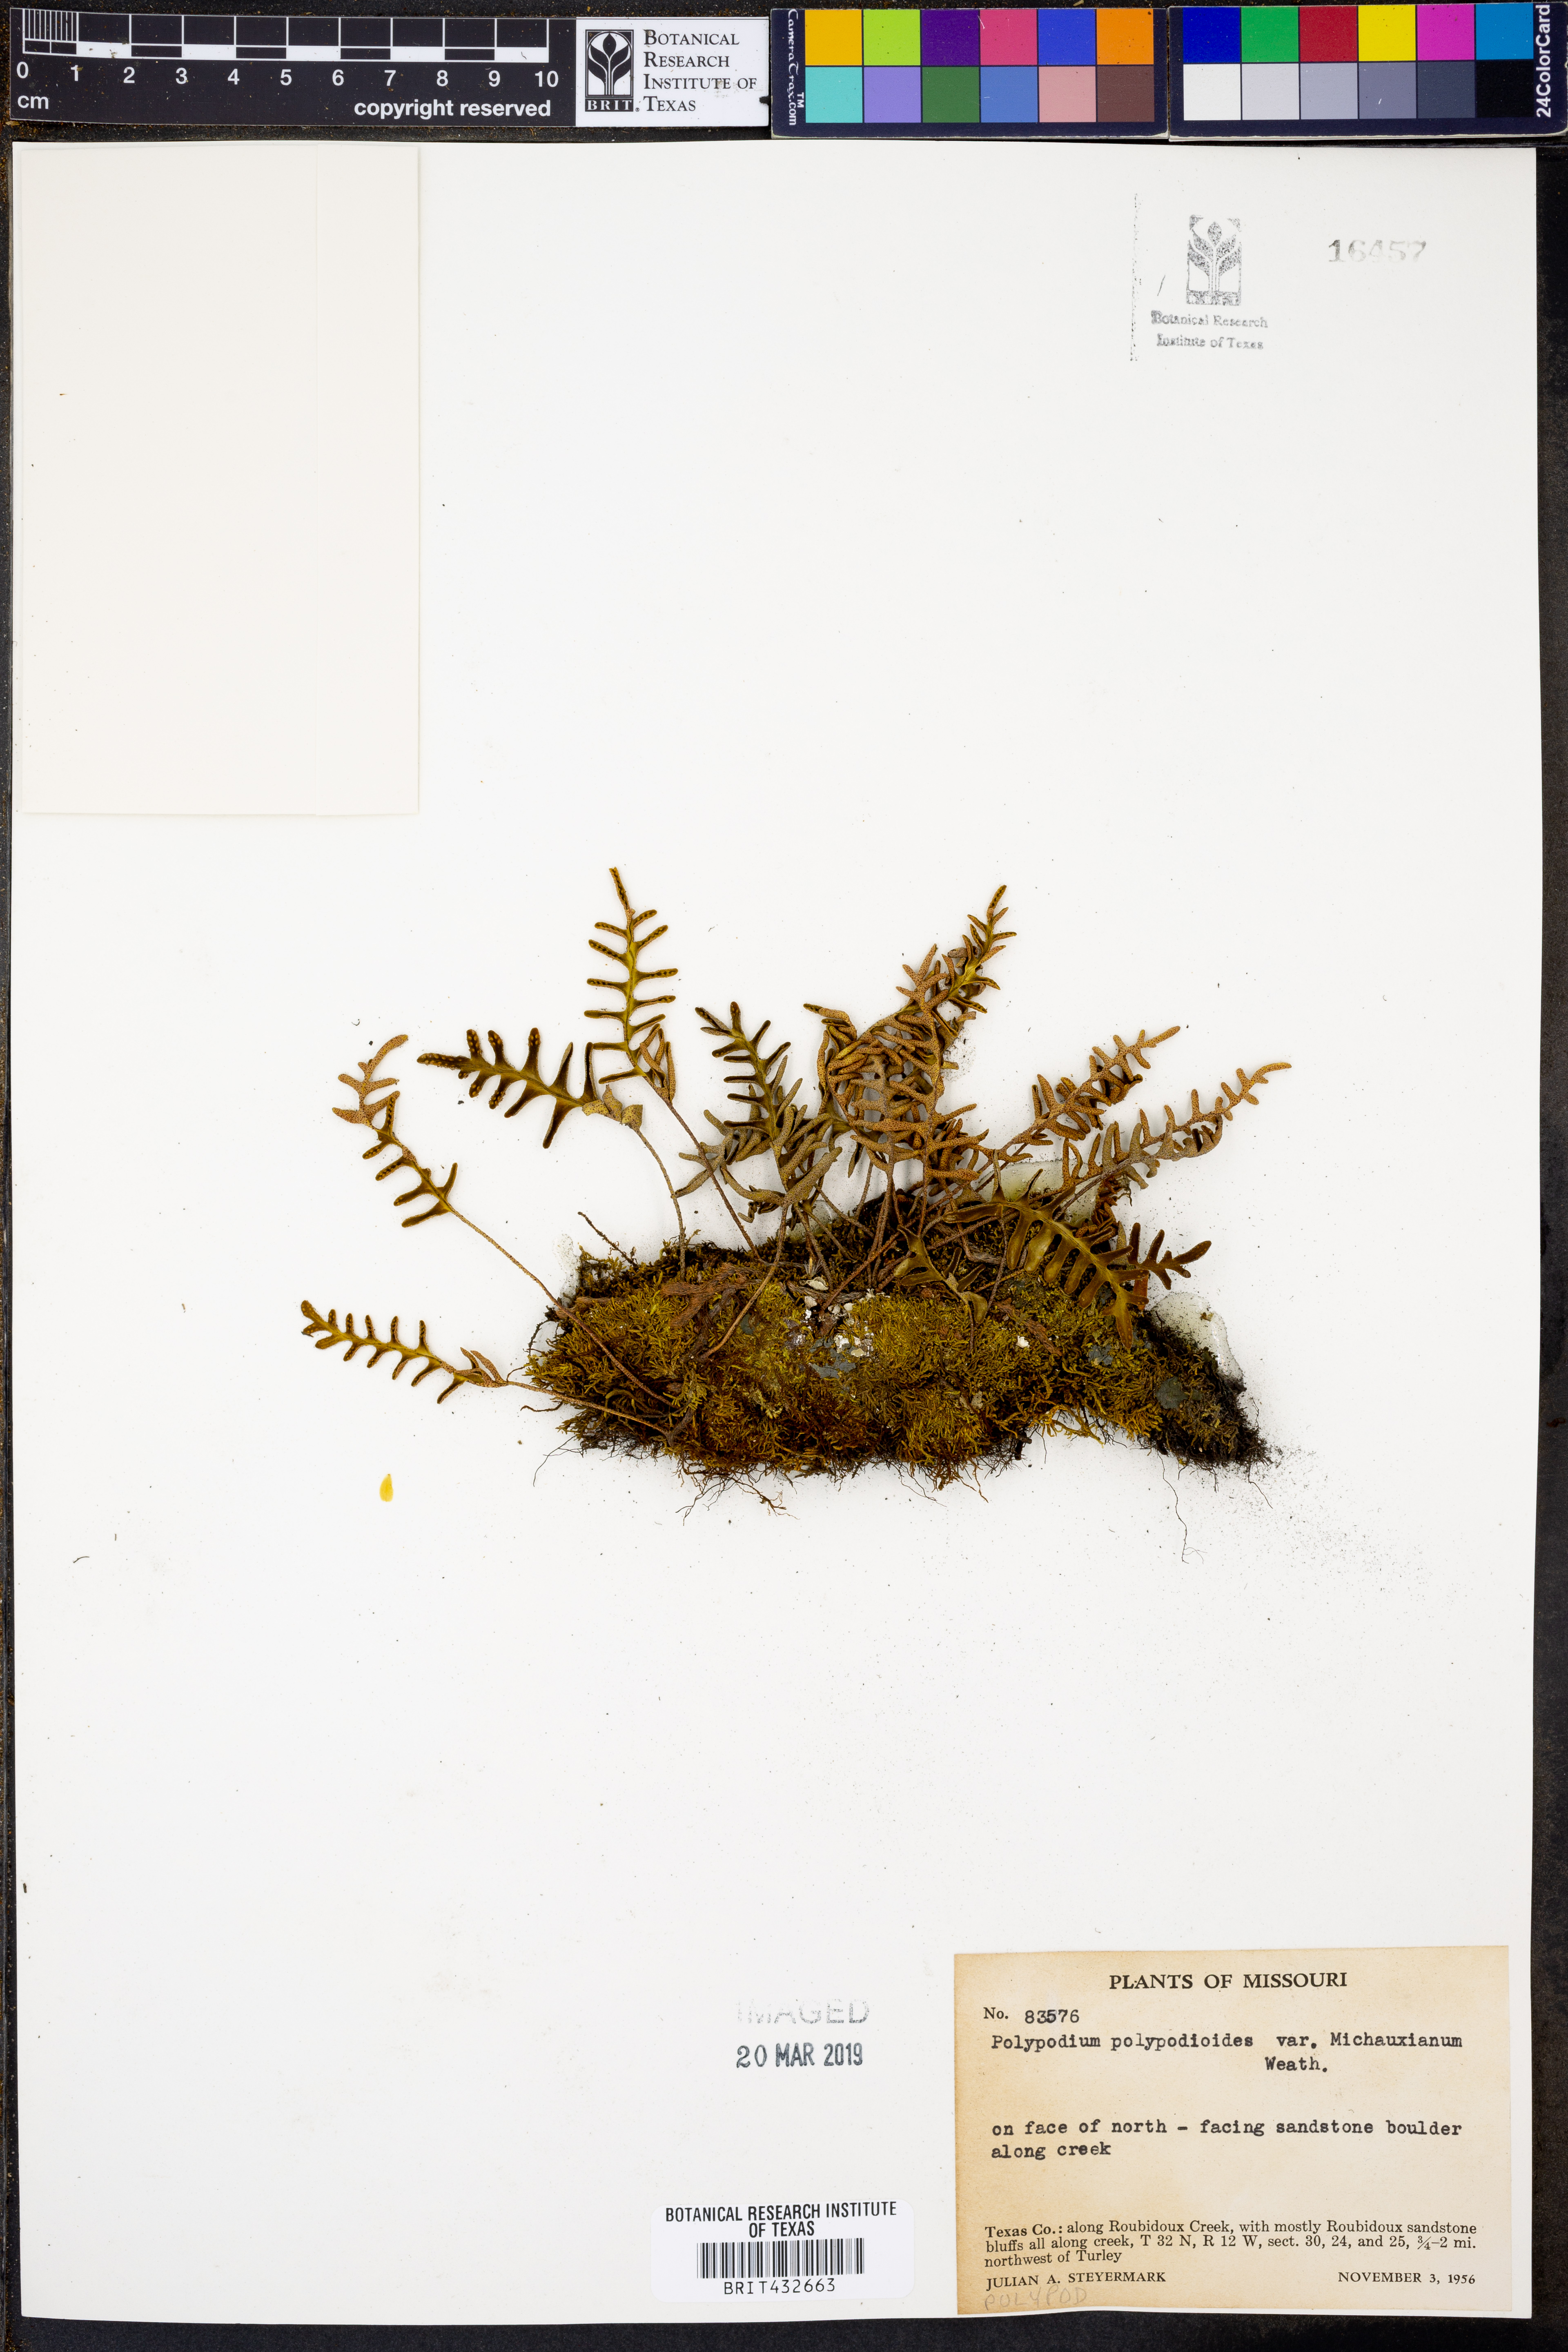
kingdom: Plantae
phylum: Tracheophyta
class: Polypodiopsida
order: Polypodiales
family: Polypodiaceae
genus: Pleopeltis
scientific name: Pleopeltis michauxiana
